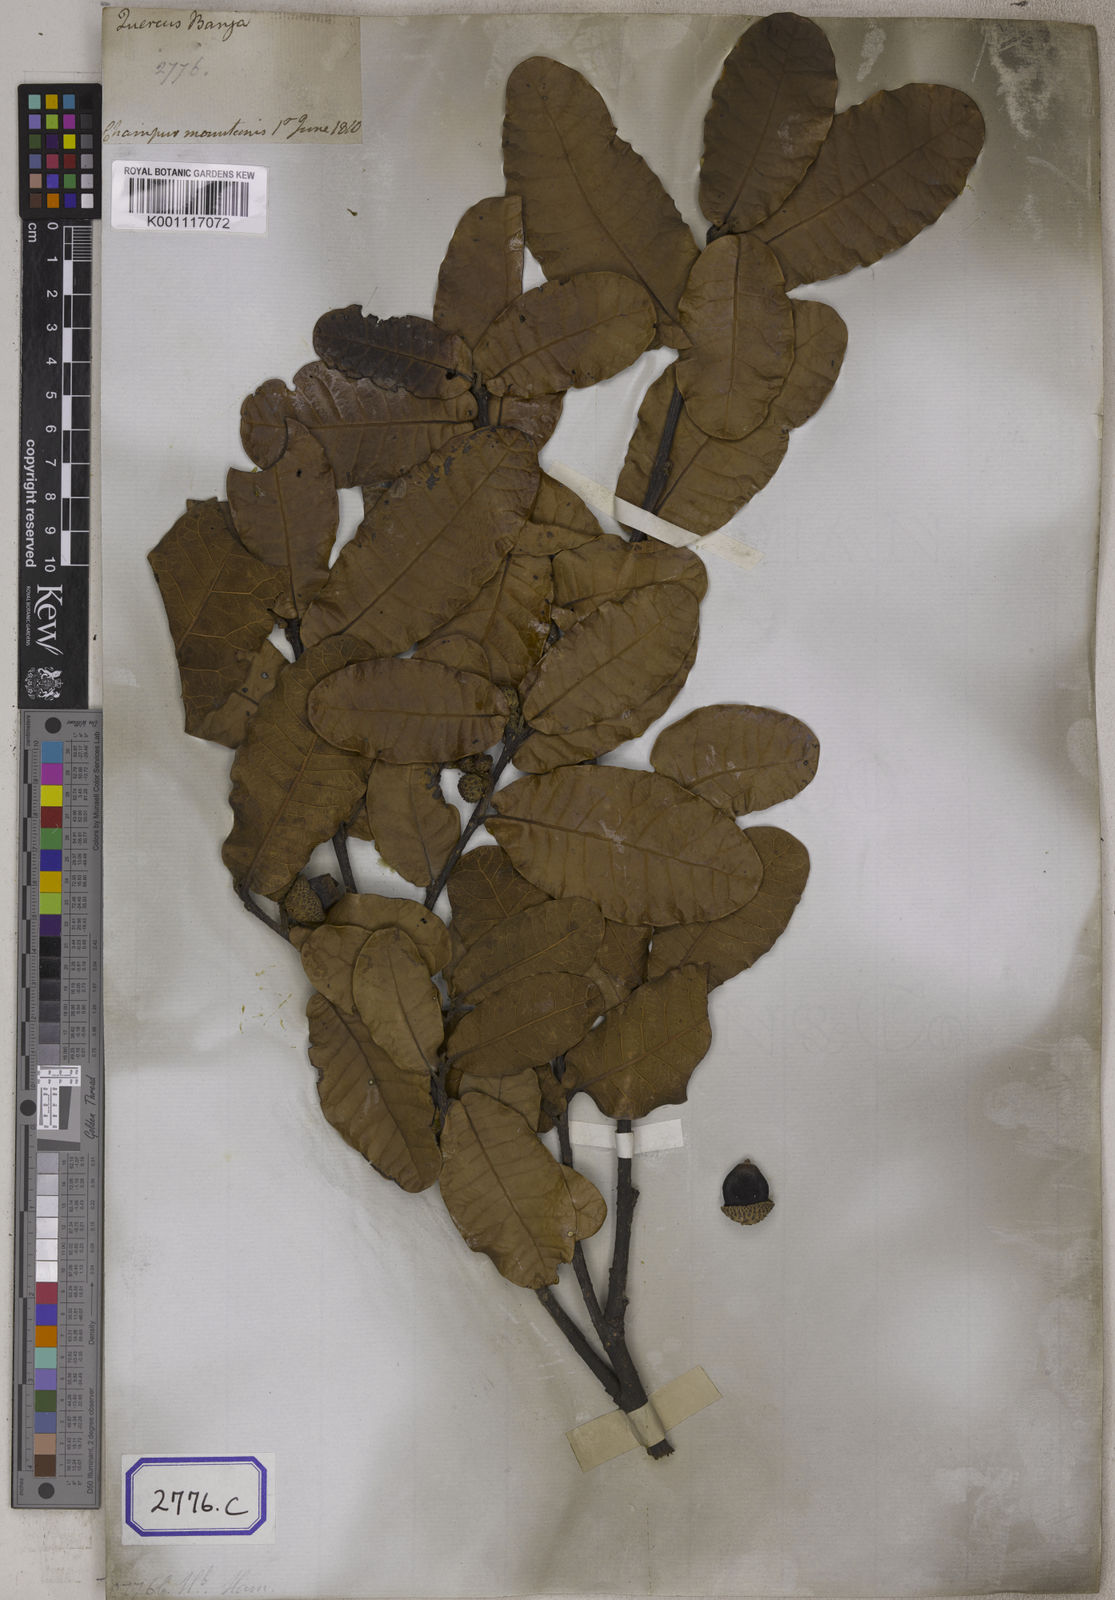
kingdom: Plantae
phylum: Tracheophyta
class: Magnoliopsida
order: Fagales
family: Fagaceae
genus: Quercus
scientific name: Quercus semecarpifolia
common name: Brown oak
